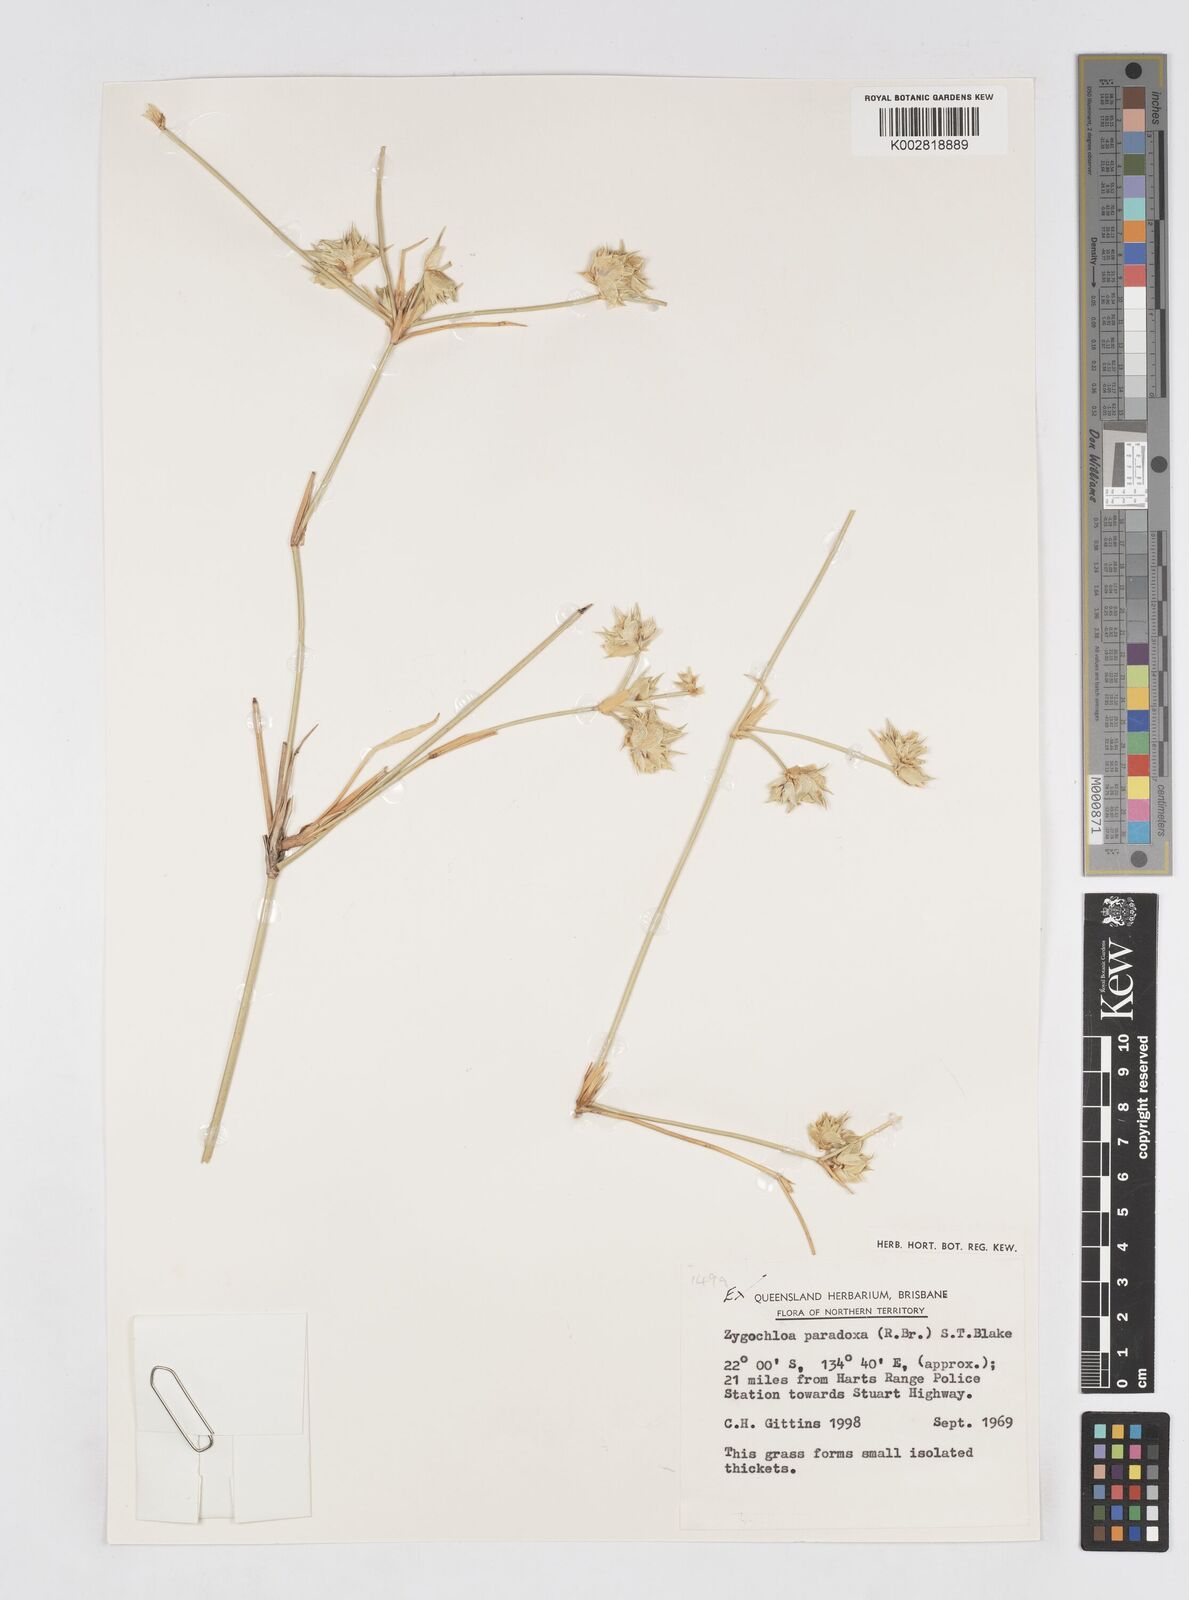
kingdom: Plantae
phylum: Tracheophyta
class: Liliopsida
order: Poales
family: Poaceae
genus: Zygochloa
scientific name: Zygochloa paradoxa
